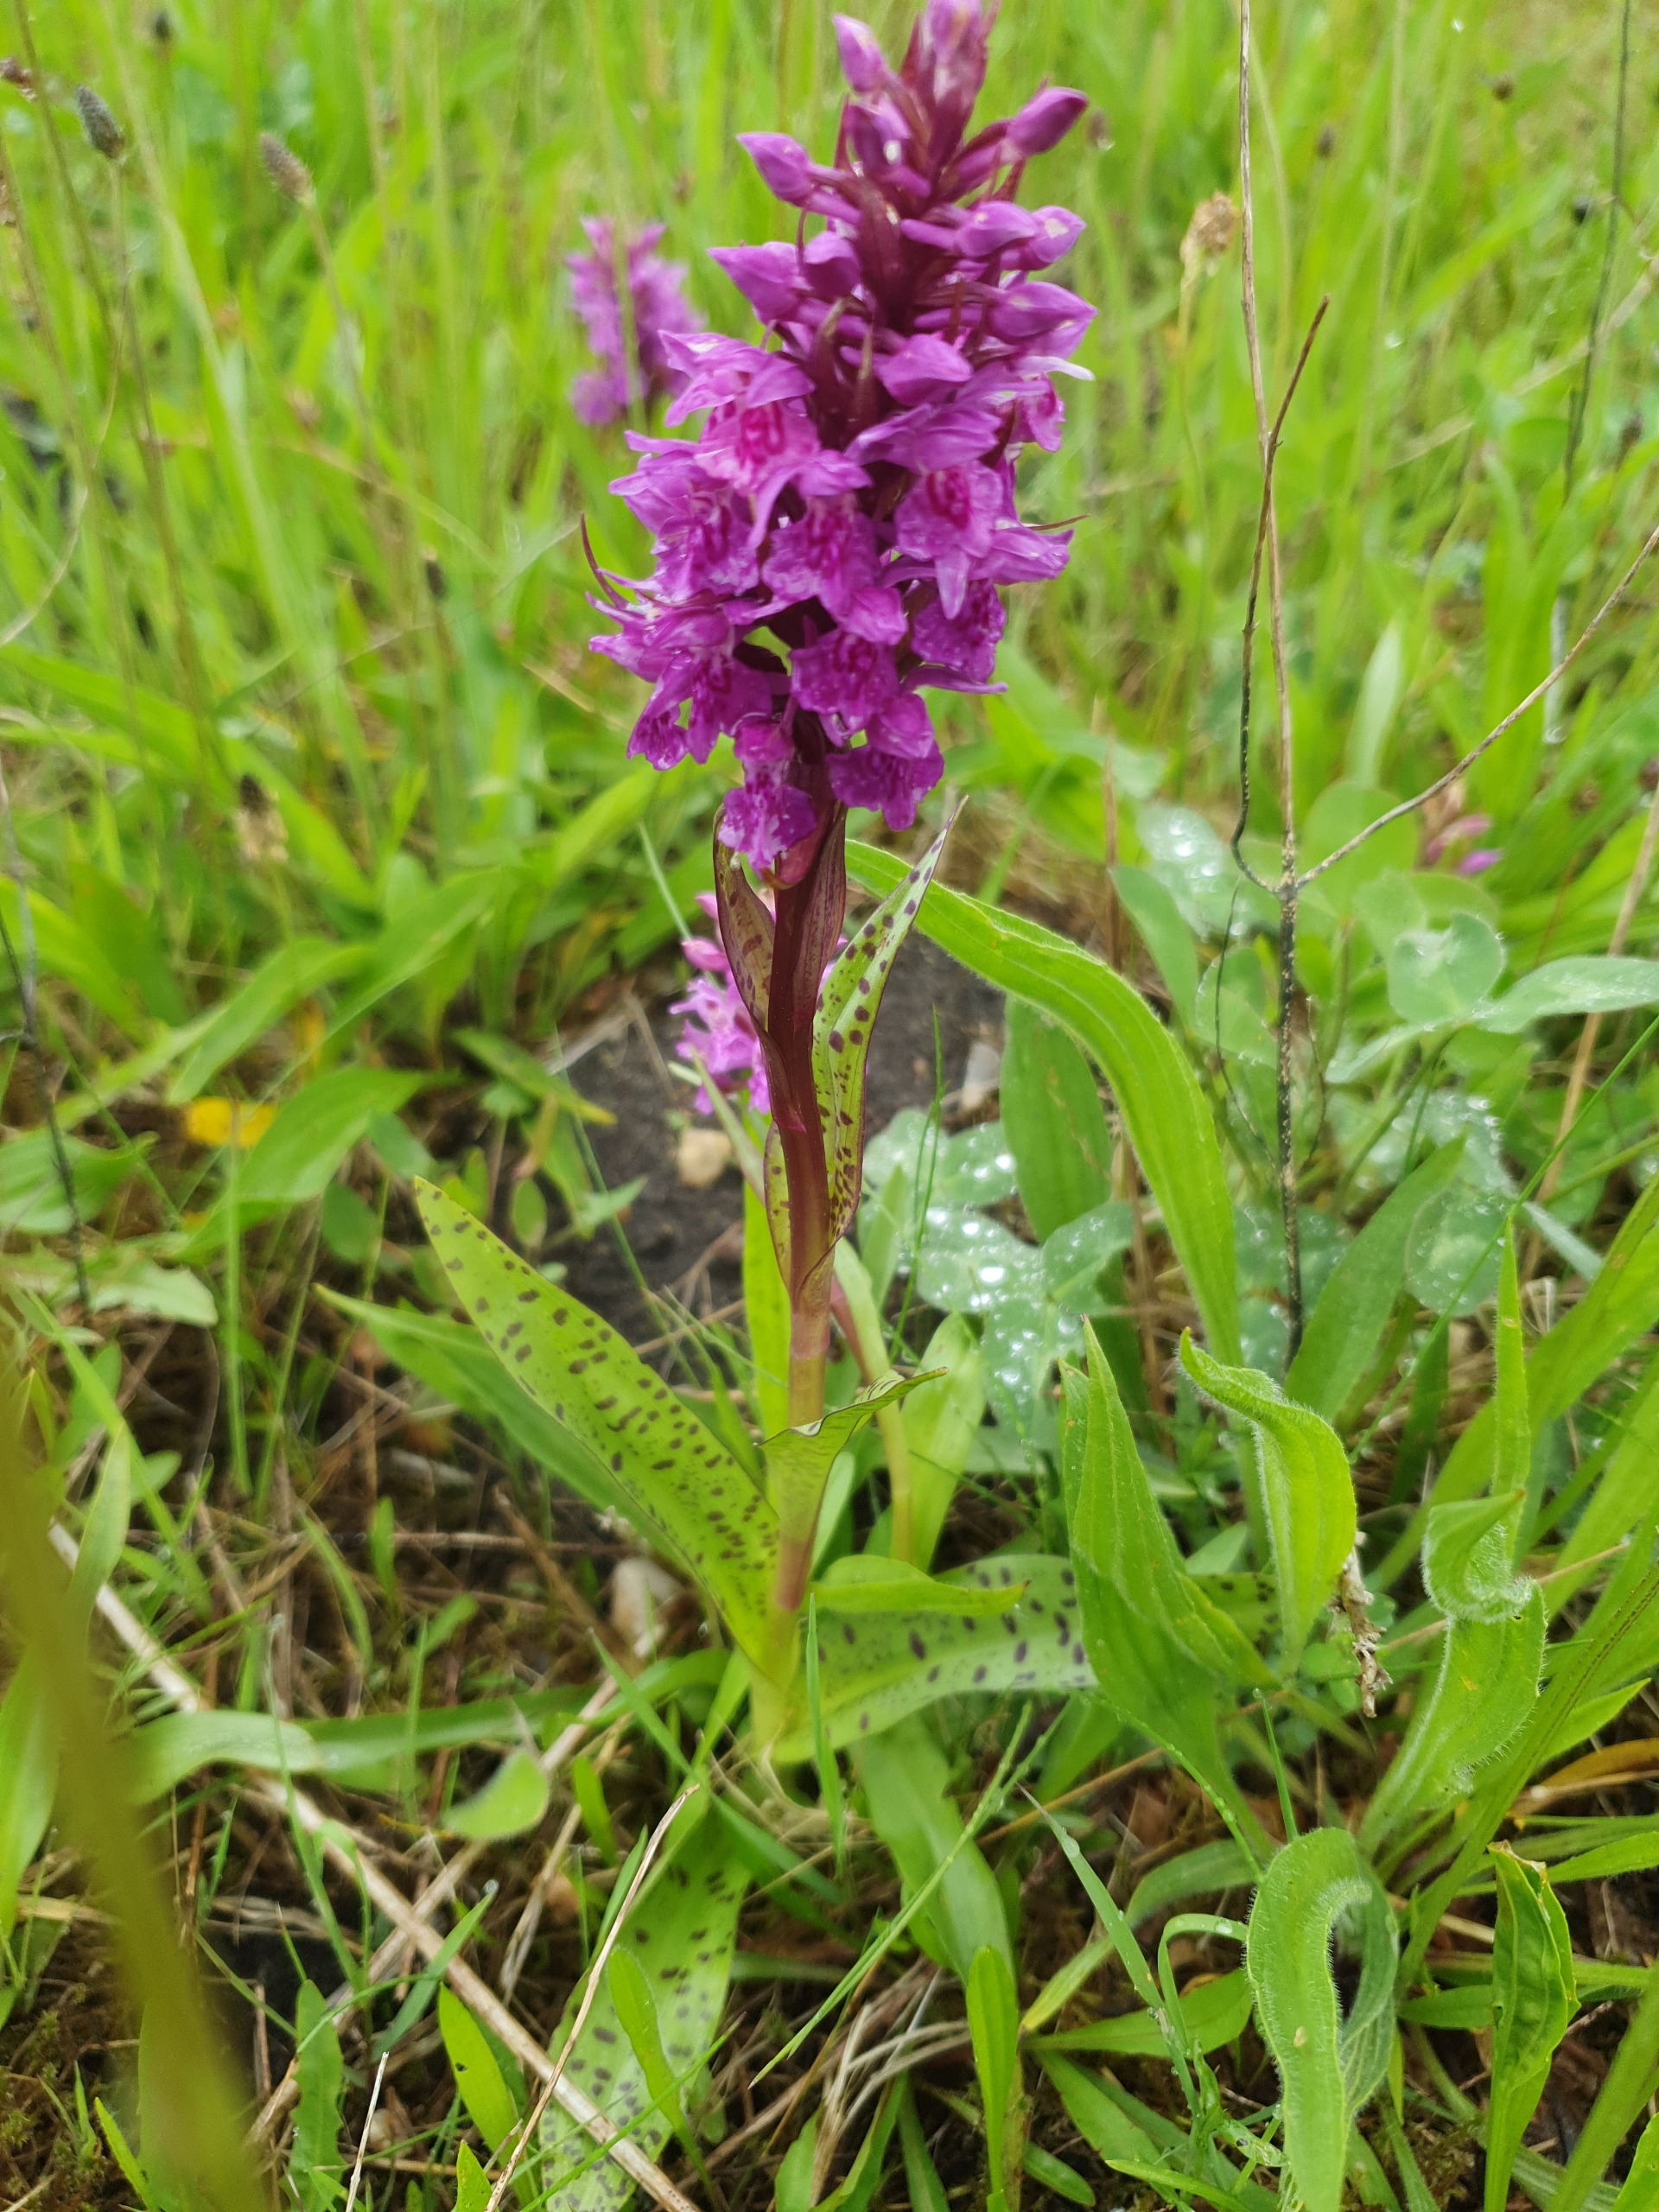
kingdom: Plantae
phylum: Tracheophyta
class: Liliopsida
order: Asparagales
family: Orchidaceae
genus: Dactylorhiza
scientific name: Dactylorhiza majalis
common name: Maj-gøgeurt
